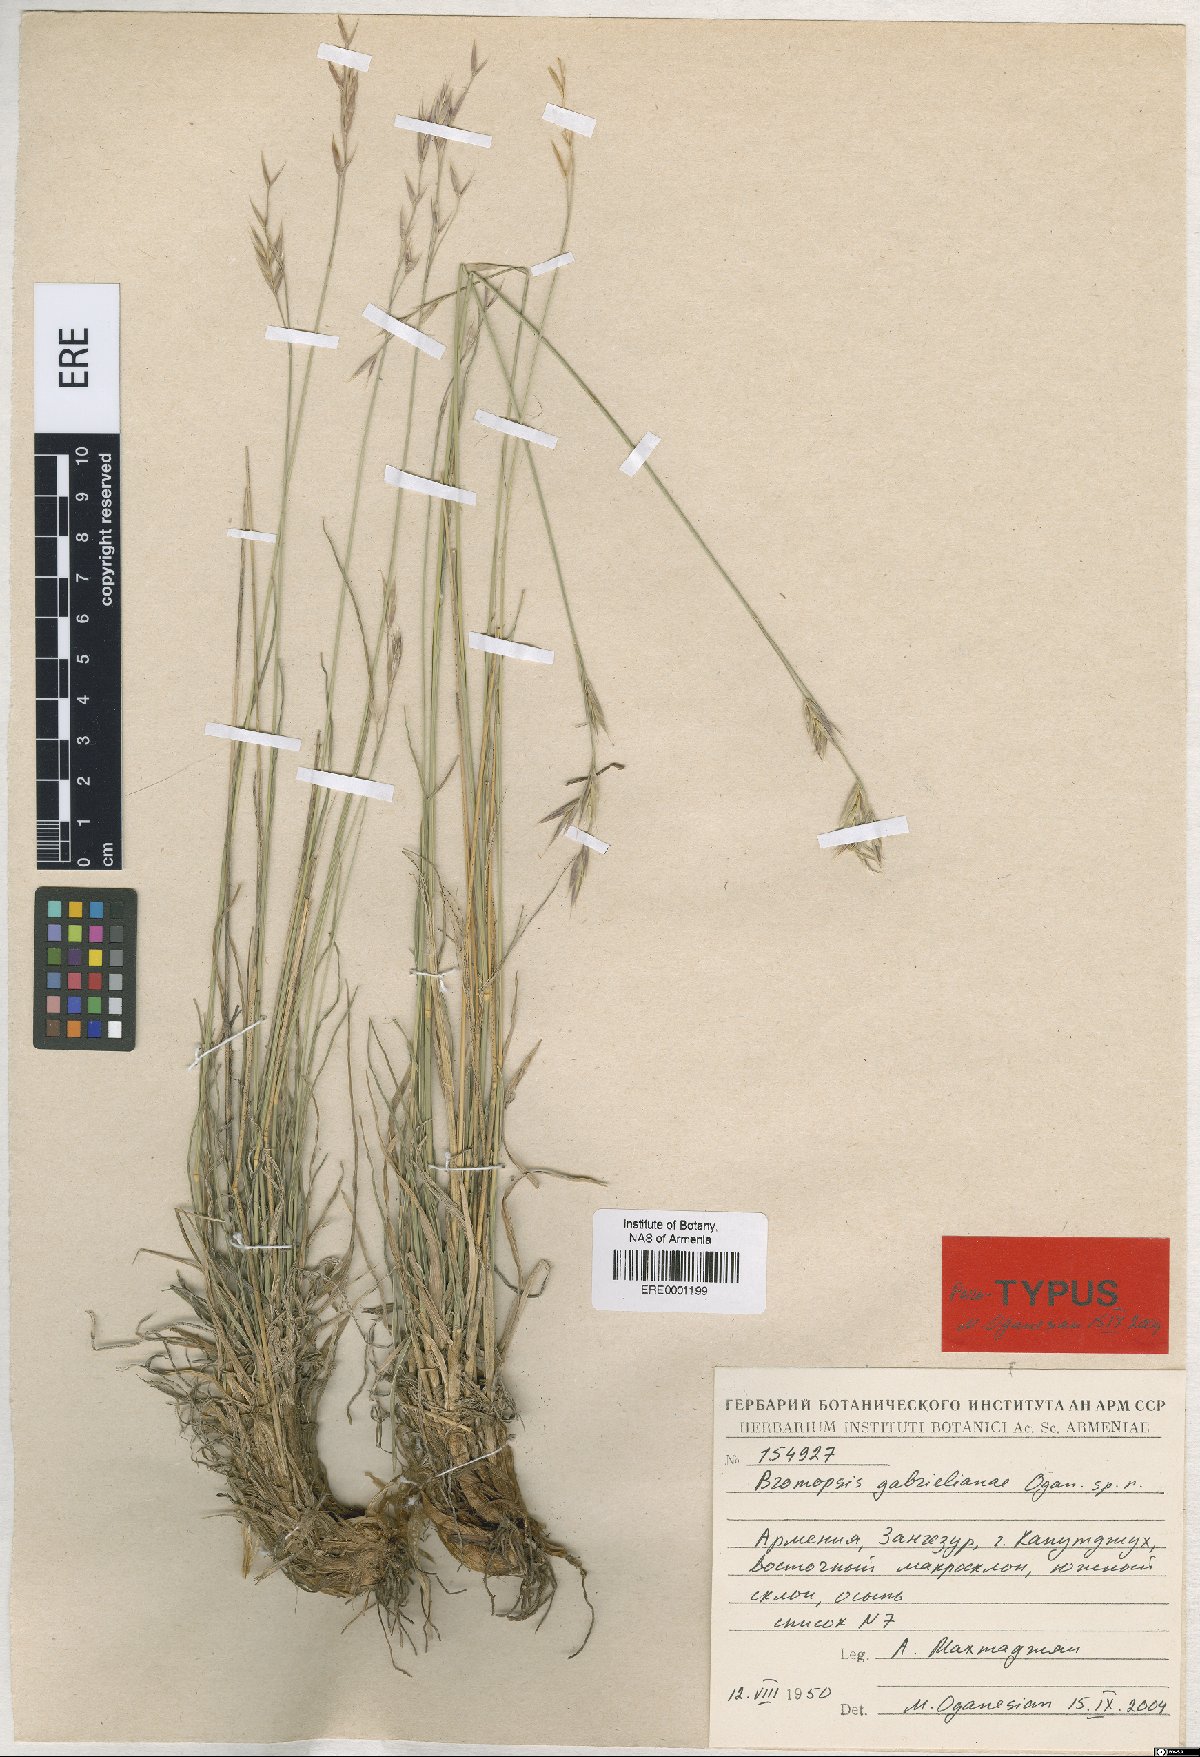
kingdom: Plantae
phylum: Tracheophyta
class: Liliopsida
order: Poales
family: Poaceae
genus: Bromus
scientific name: Bromus tomentosus
